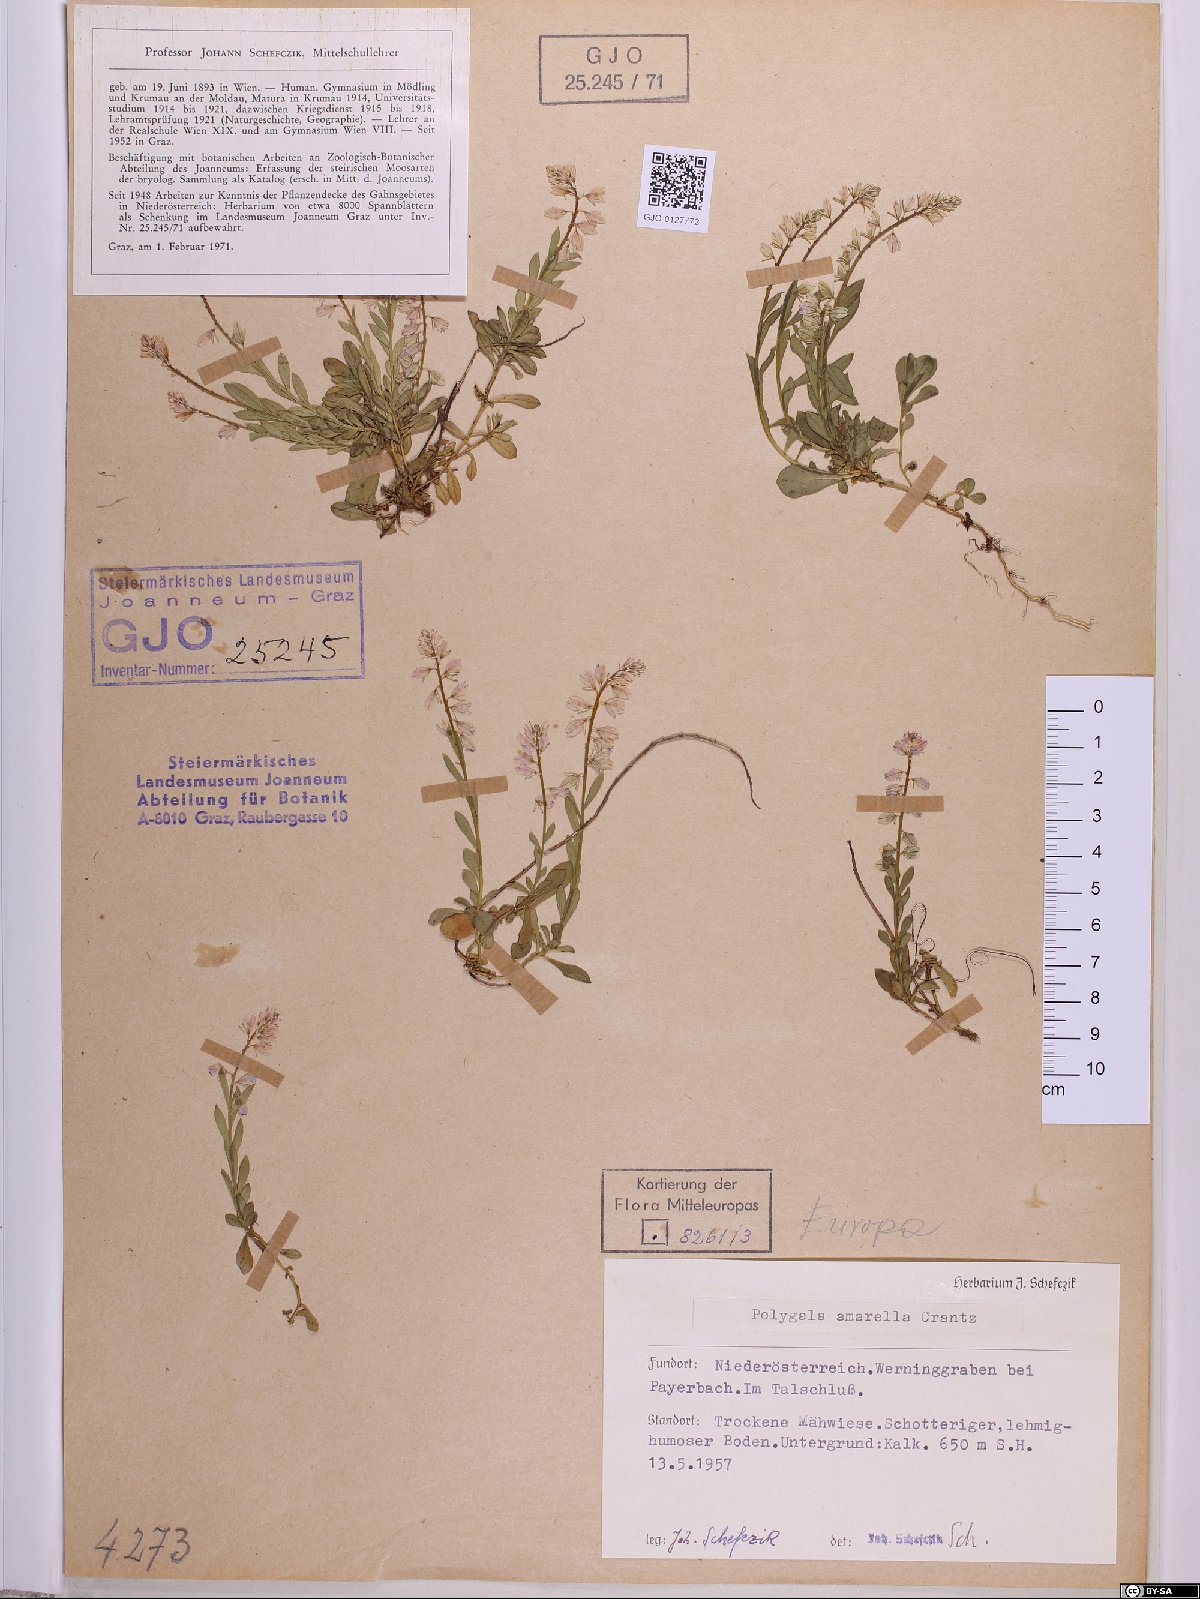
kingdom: Plantae
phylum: Tracheophyta
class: Magnoliopsida
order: Fabales
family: Polygalaceae
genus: Polygala
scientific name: Polygala amarella
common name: Dwarf milkwort
